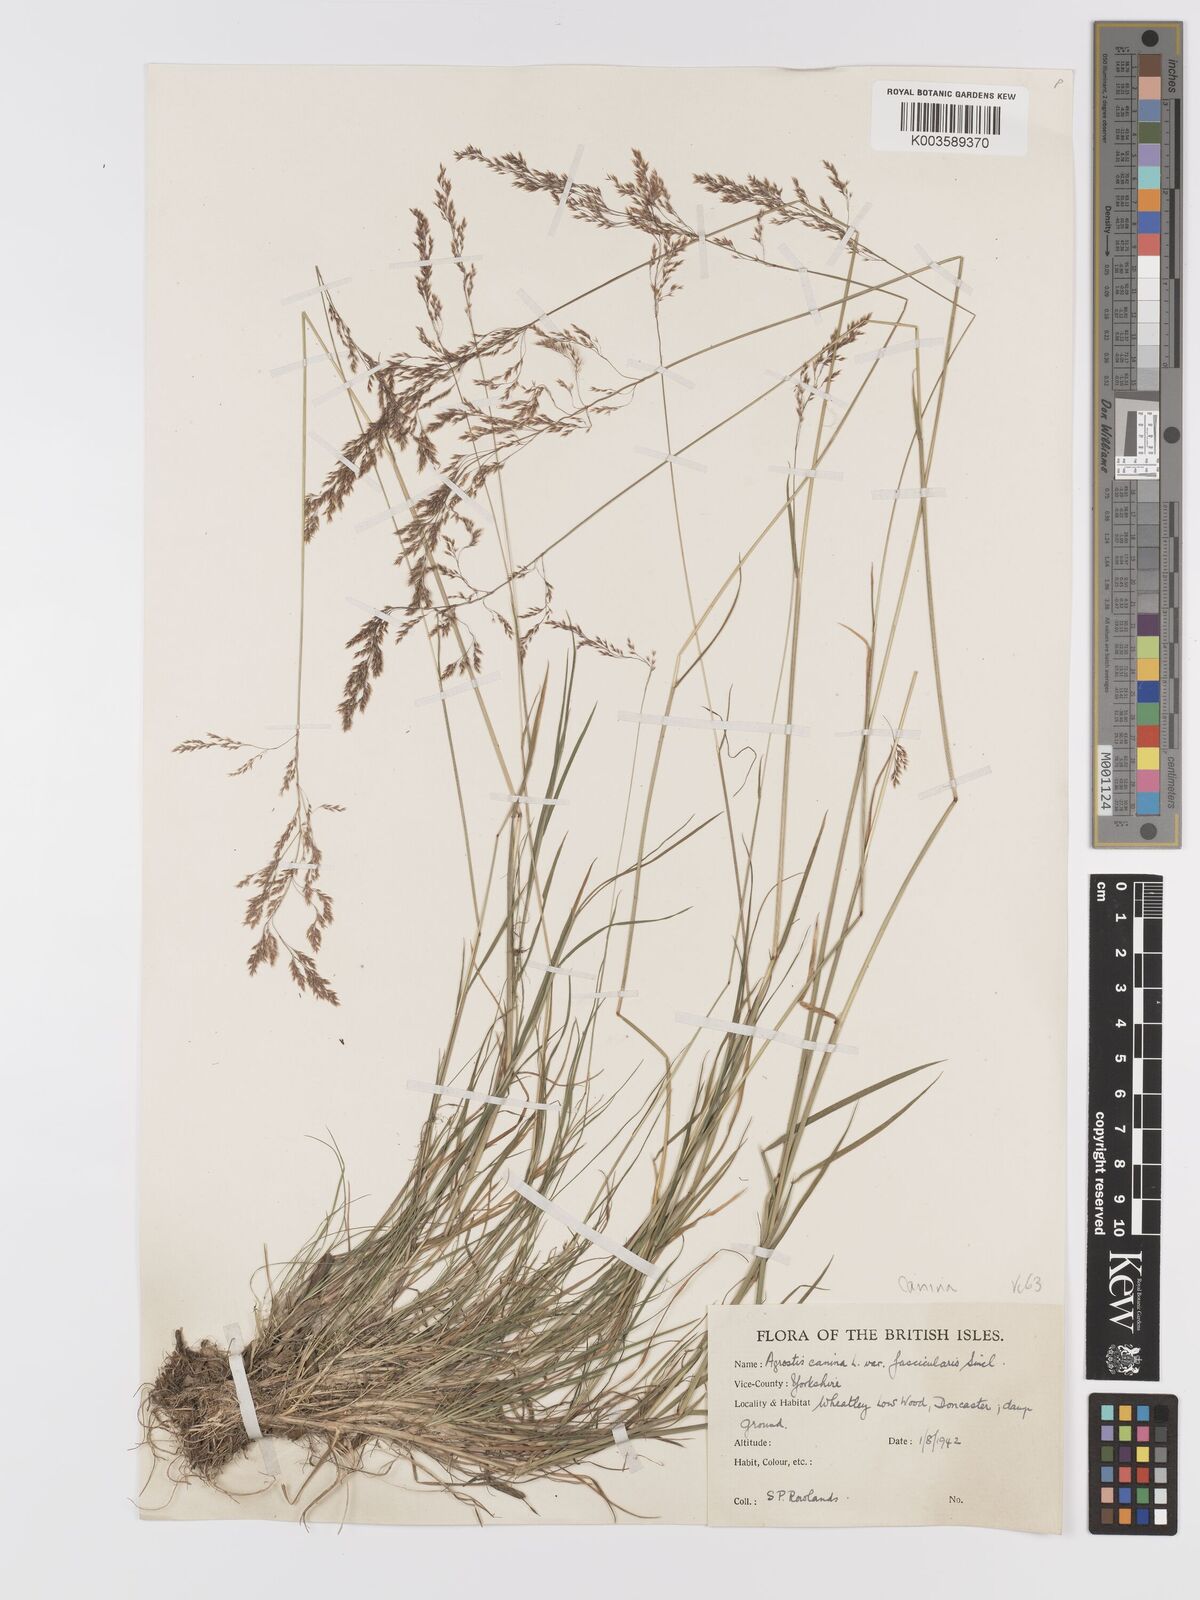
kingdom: Plantae
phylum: Tracheophyta
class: Liliopsida
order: Poales
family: Poaceae
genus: Agrostis
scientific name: Agrostis canina
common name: Velvet bent
